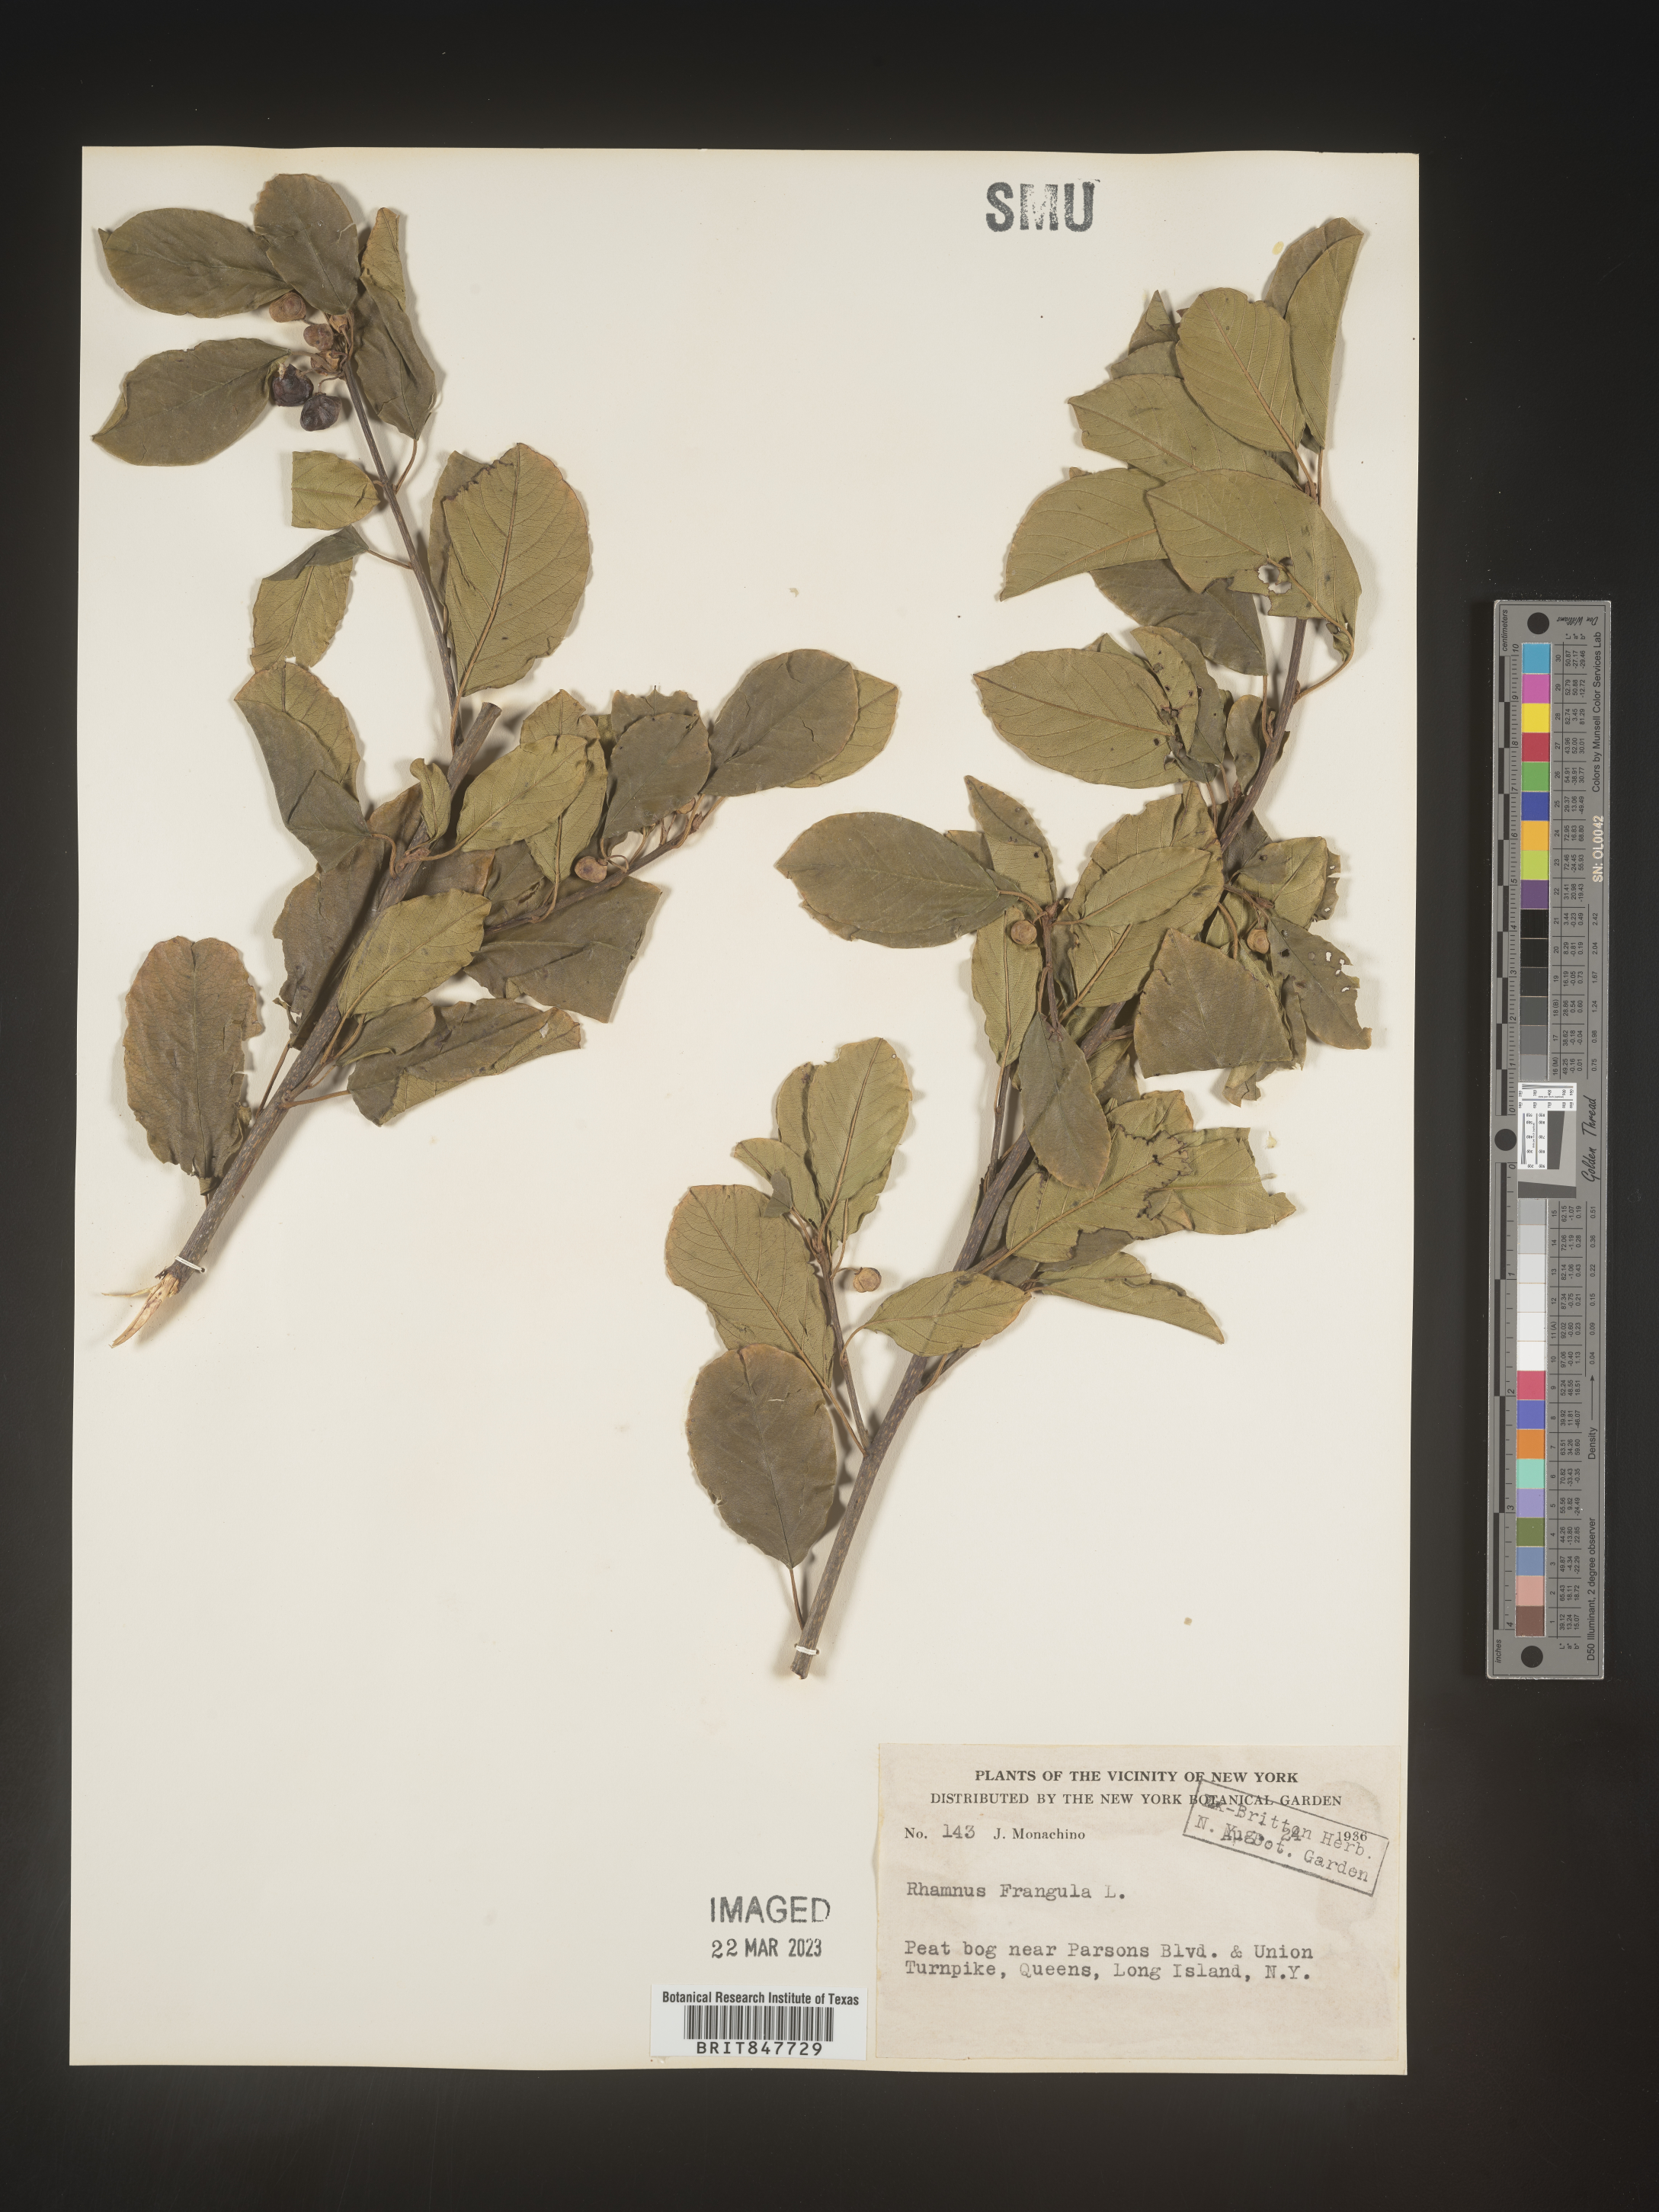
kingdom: Plantae
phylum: Tracheophyta
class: Magnoliopsida
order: Rosales
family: Rhamnaceae
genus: Frangula
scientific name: Frangula alnus
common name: Alder buckthorn
